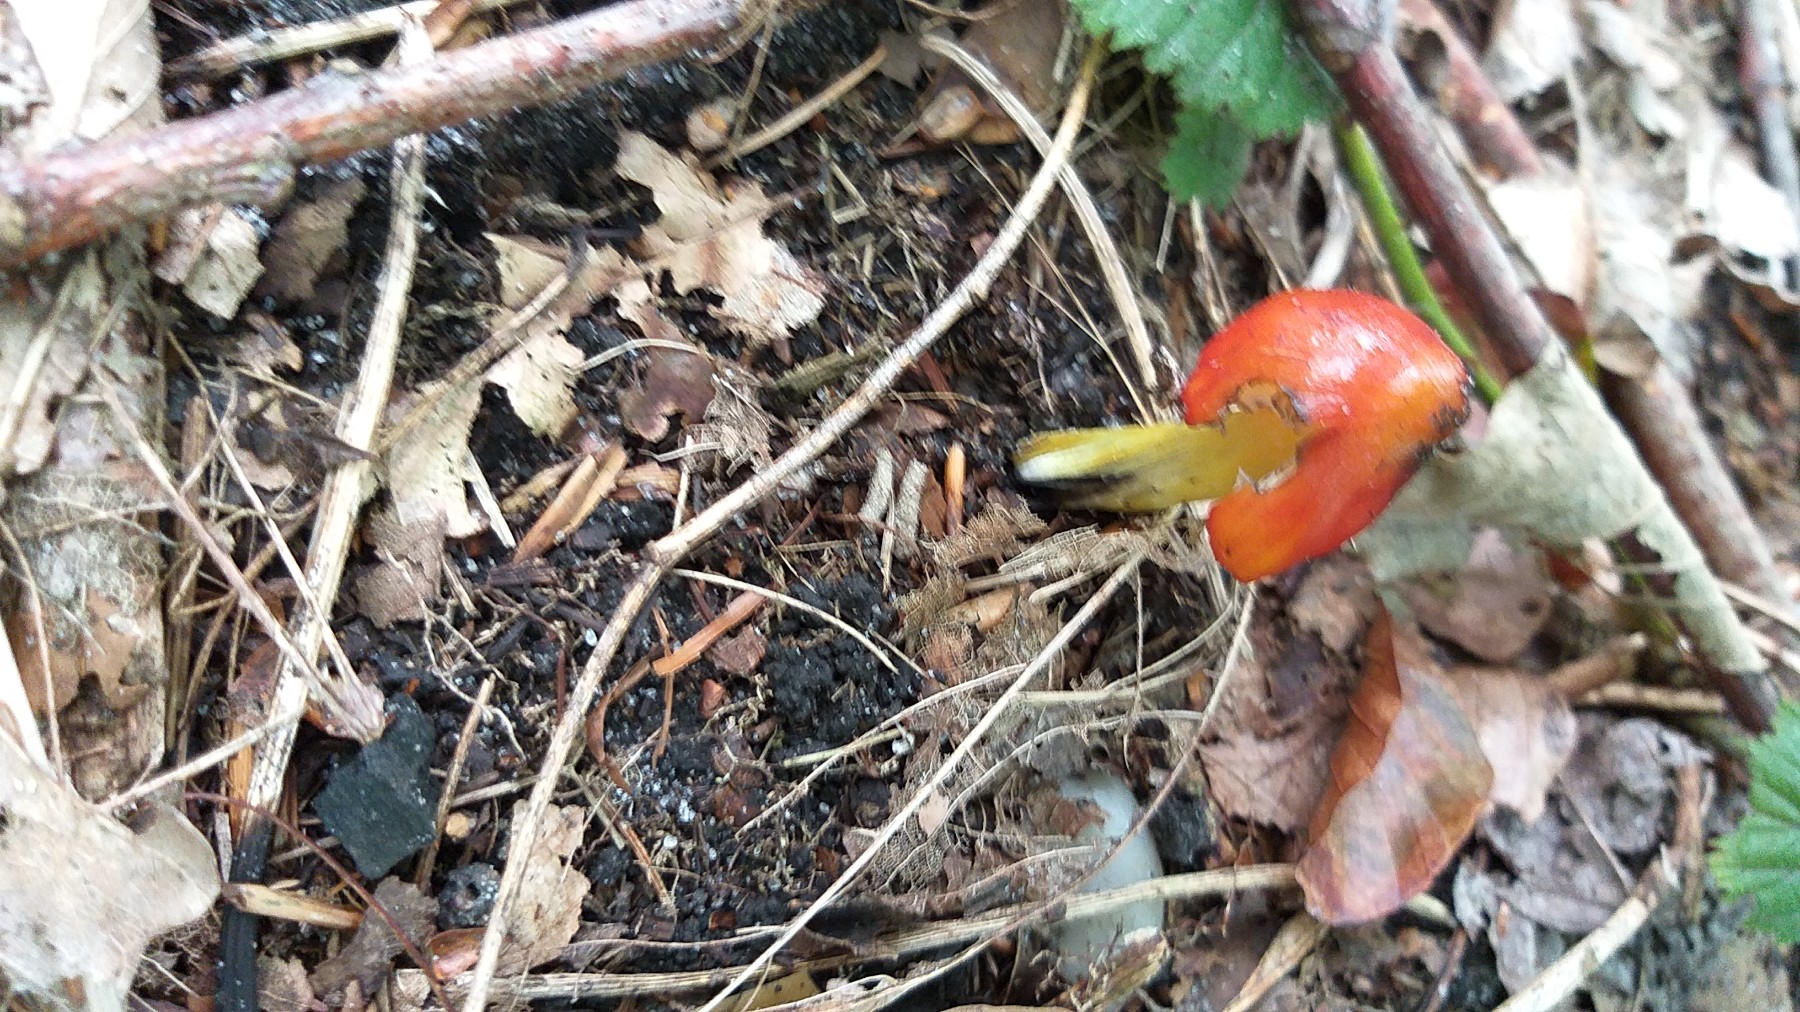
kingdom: Fungi
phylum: Basidiomycota
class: Agaricomycetes
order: Agaricales
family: Hygrophoraceae
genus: Hygrocybe
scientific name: Hygrocybe conica
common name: kegle-vokshat
